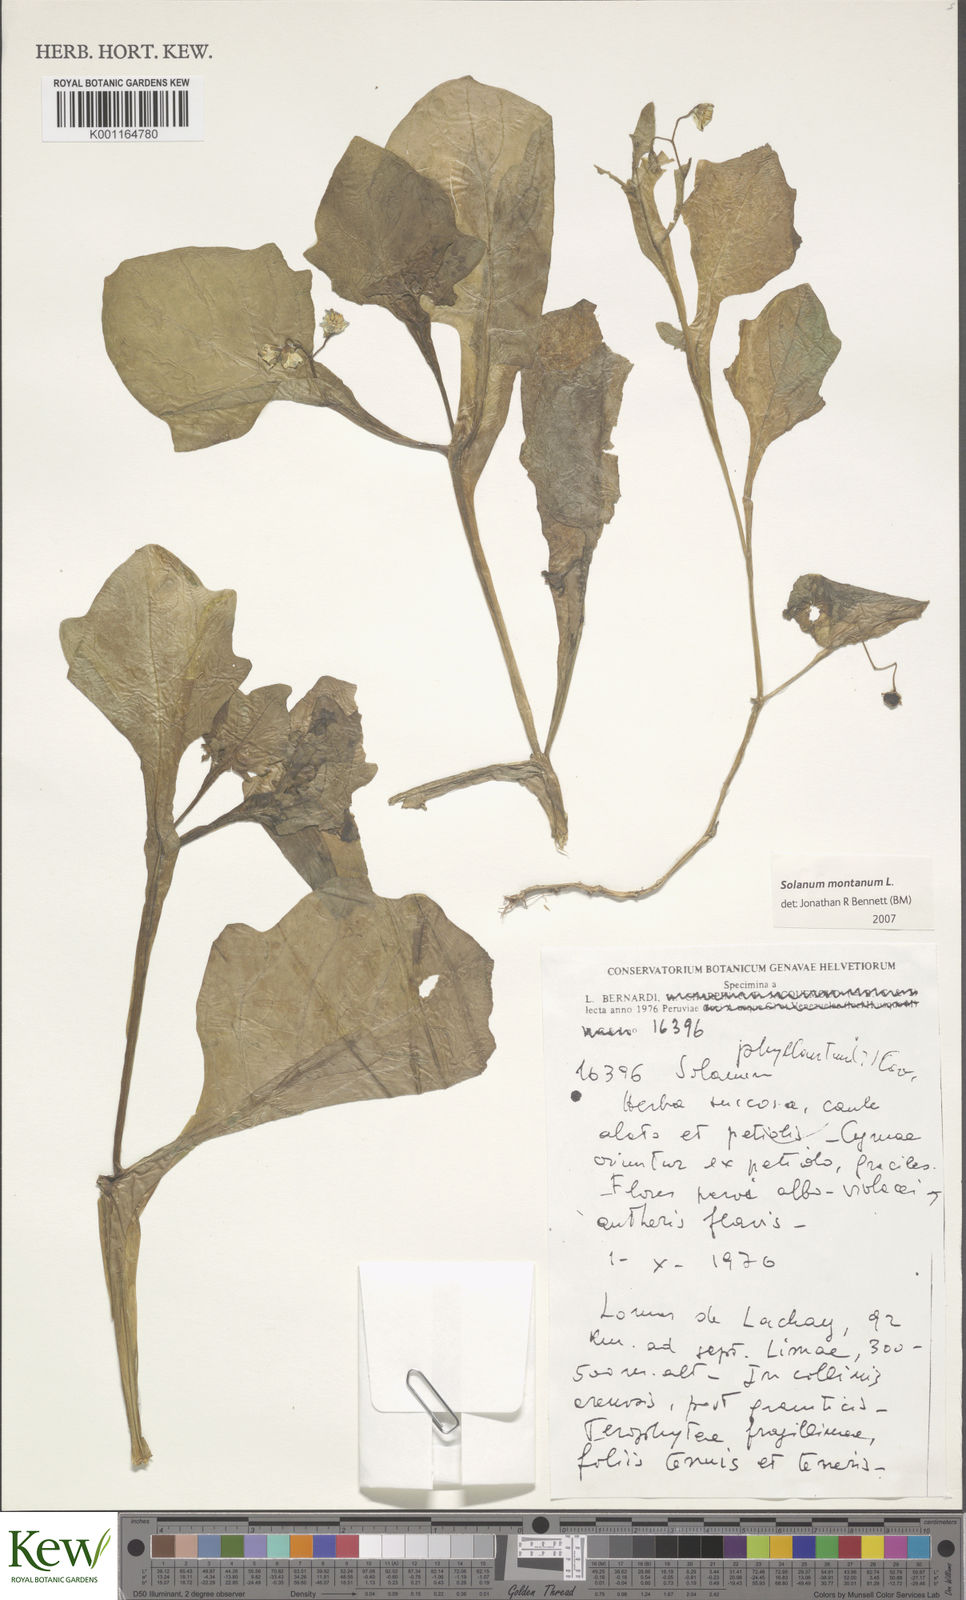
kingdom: Plantae
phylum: Tracheophyta
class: Magnoliopsida
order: Solanales
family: Solanaceae
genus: Solanum
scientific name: Solanum montanum
